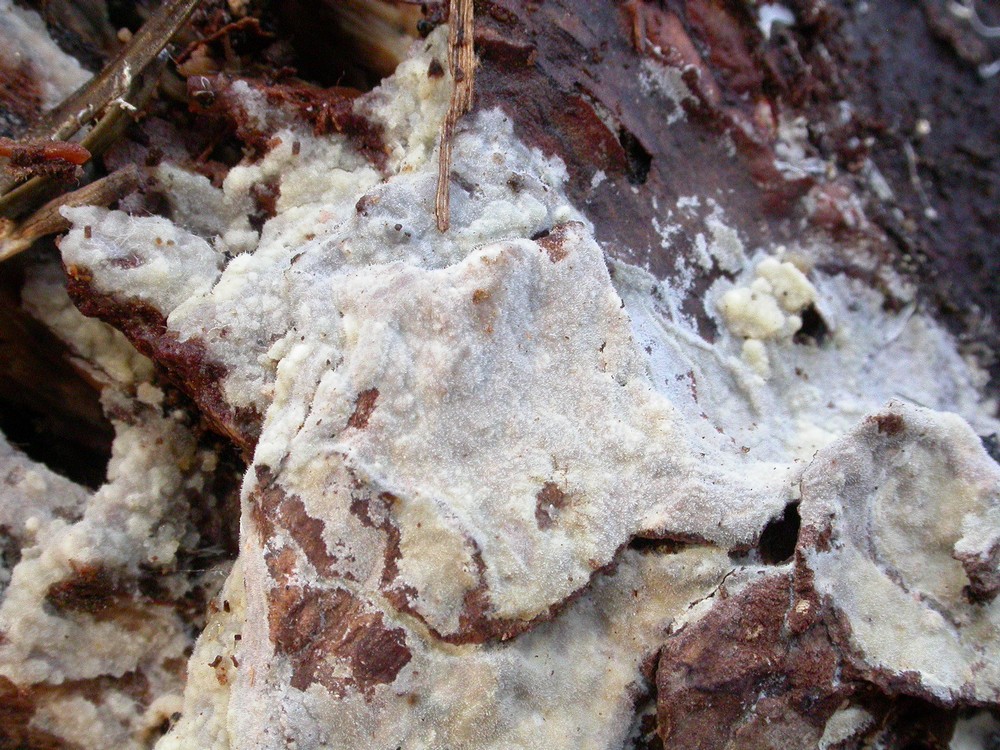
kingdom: Fungi
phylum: Basidiomycota
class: Agaricomycetes
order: Hymenochaetales
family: Rickenellaceae
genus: Peniophorella
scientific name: Peniophorella pubera
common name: dunet kalkskind
